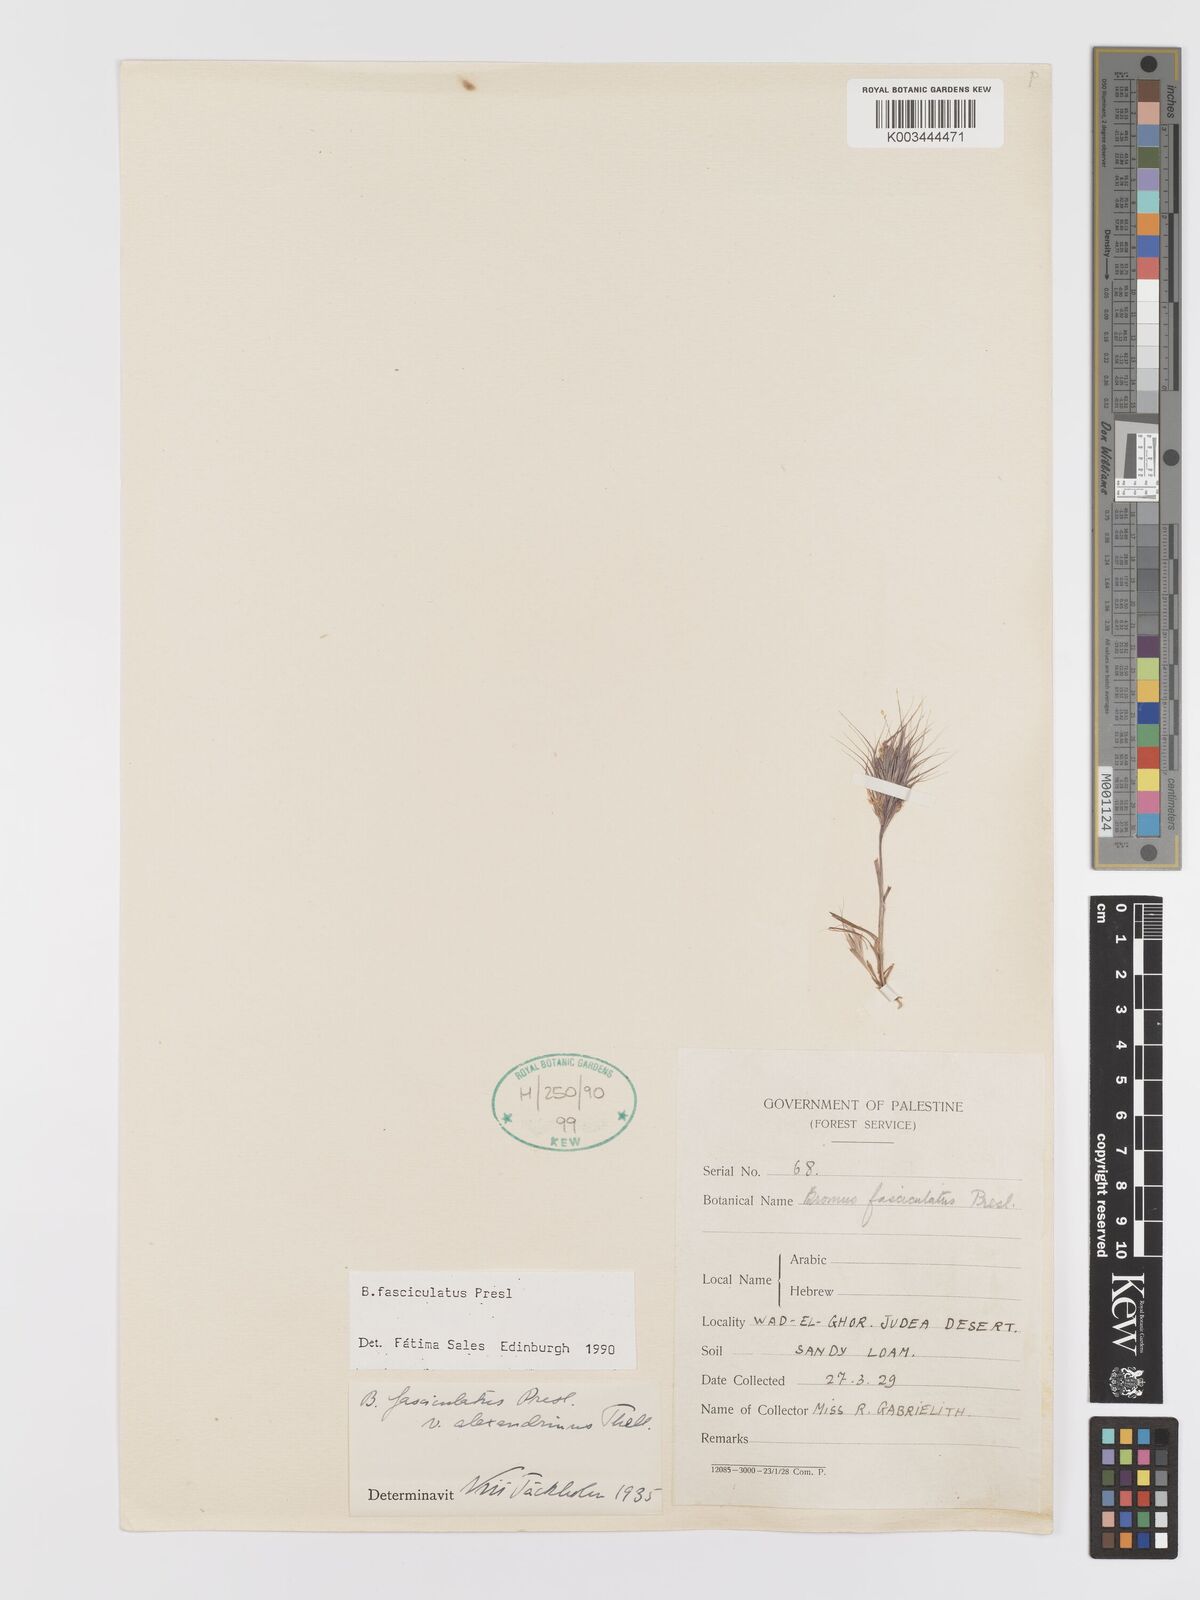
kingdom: Plantae
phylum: Tracheophyta
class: Liliopsida
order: Poales
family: Poaceae
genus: Bromus
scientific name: Bromus fasciculatus
